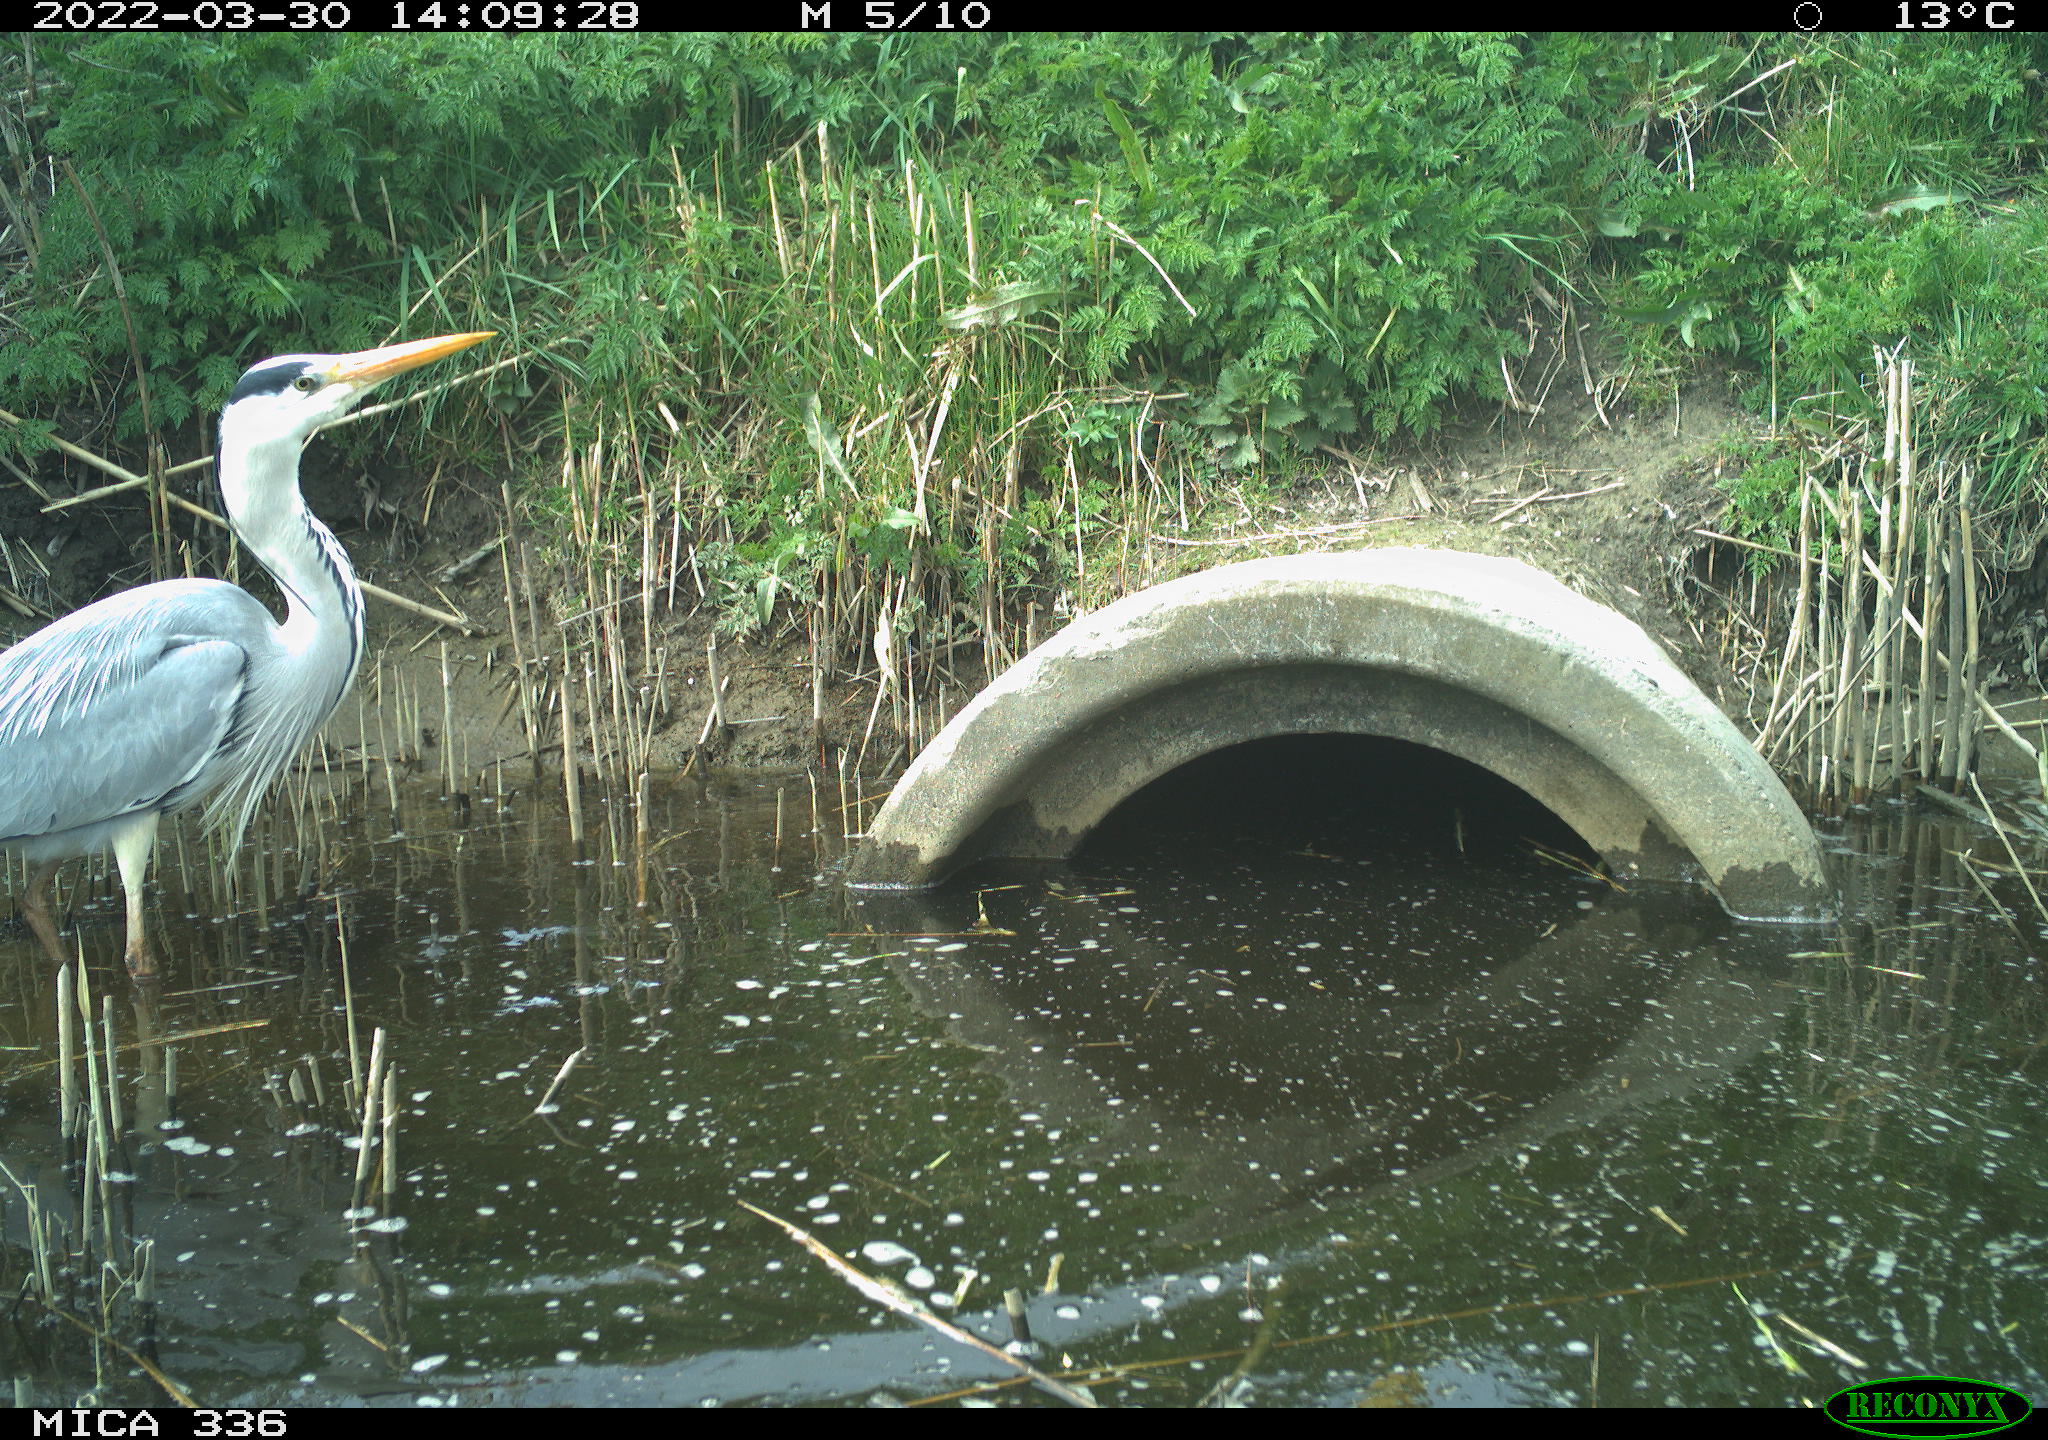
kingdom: Animalia
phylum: Chordata
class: Aves
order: Pelecaniformes
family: Ardeidae
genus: Ardea
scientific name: Ardea
